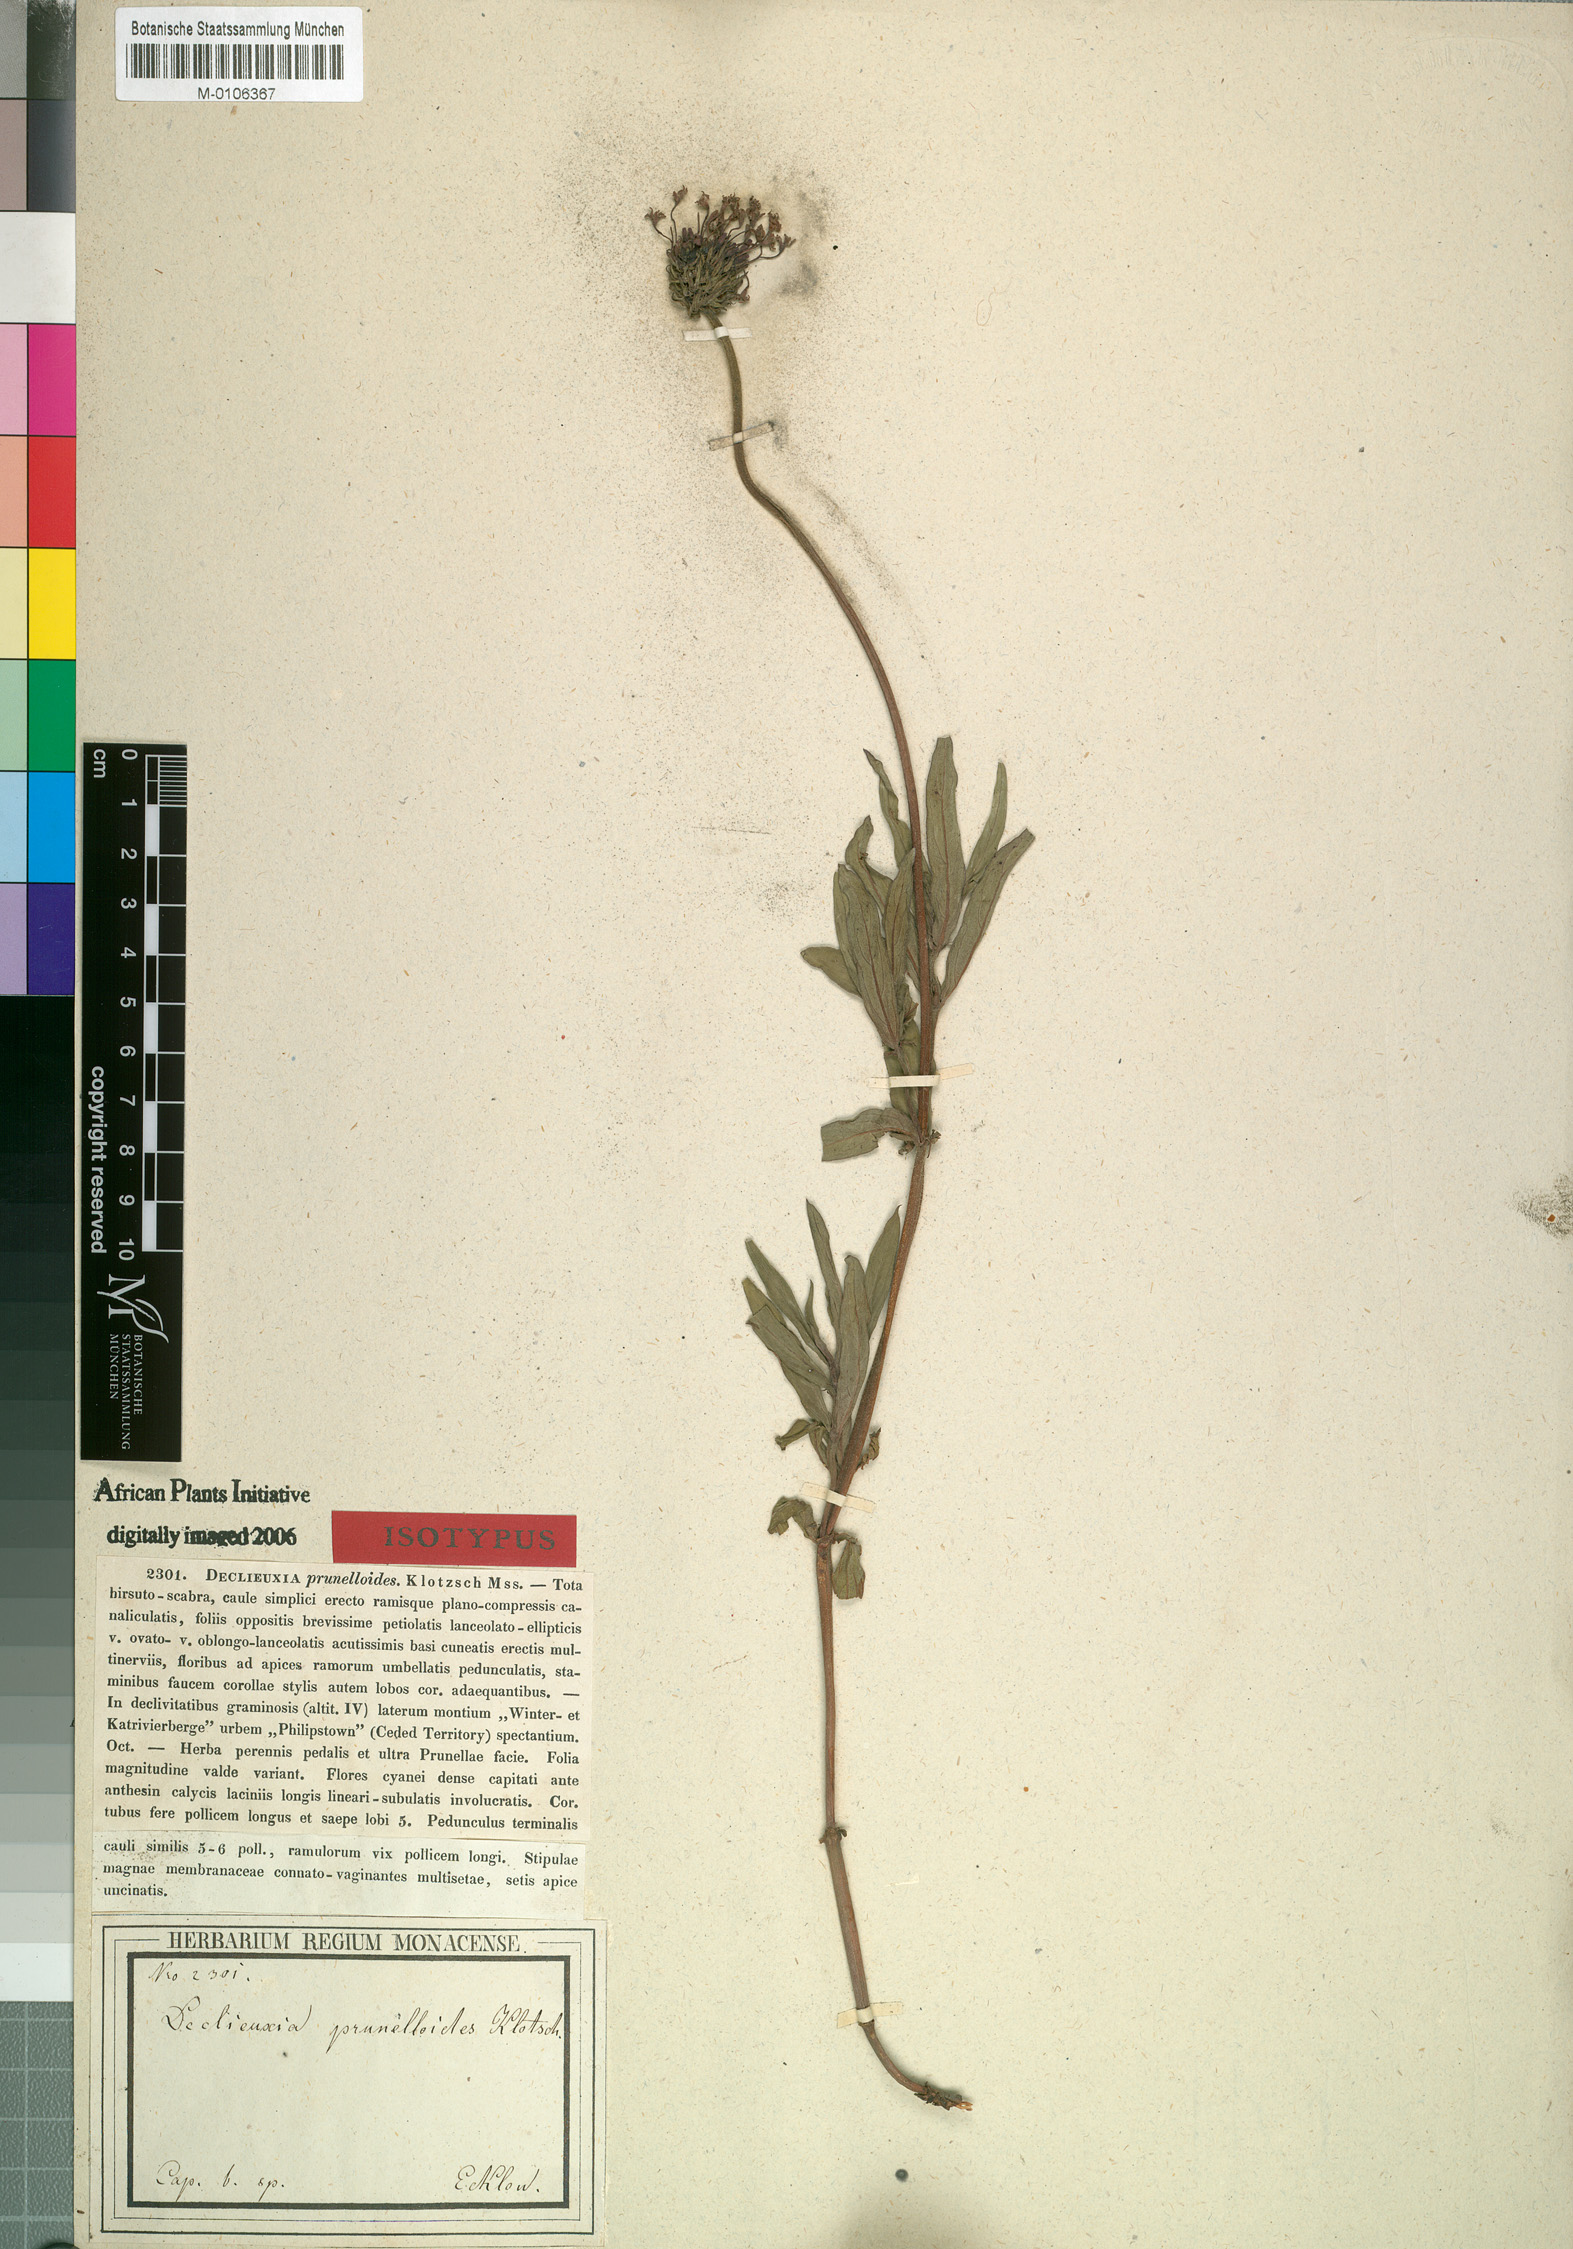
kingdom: Plantae
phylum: Tracheophyta
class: Magnoliopsida
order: Gentianales
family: Rubiaceae
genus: Pentanisia
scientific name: Pentanisia prunelloides
